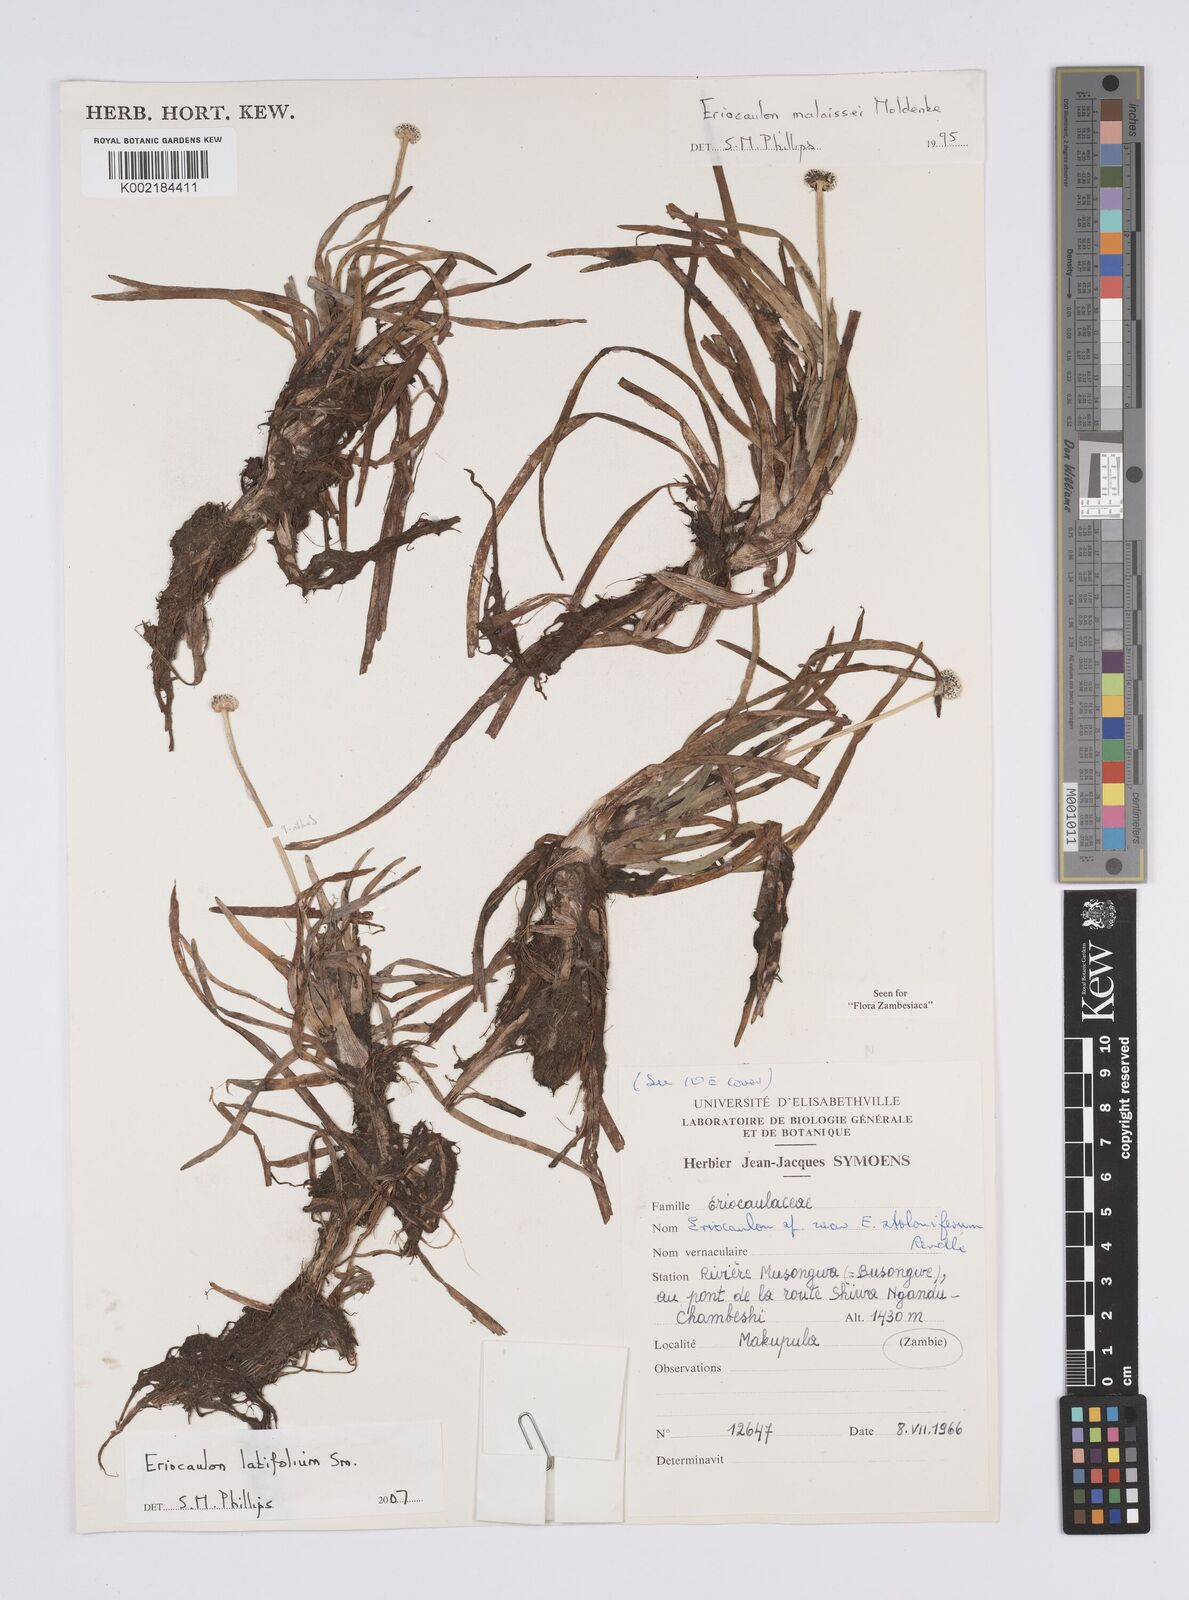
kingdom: Plantae
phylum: Tracheophyta
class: Liliopsida
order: Poales
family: Eriocaulaceae
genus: Eriocaulon
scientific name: Eriocaulon latifolium
